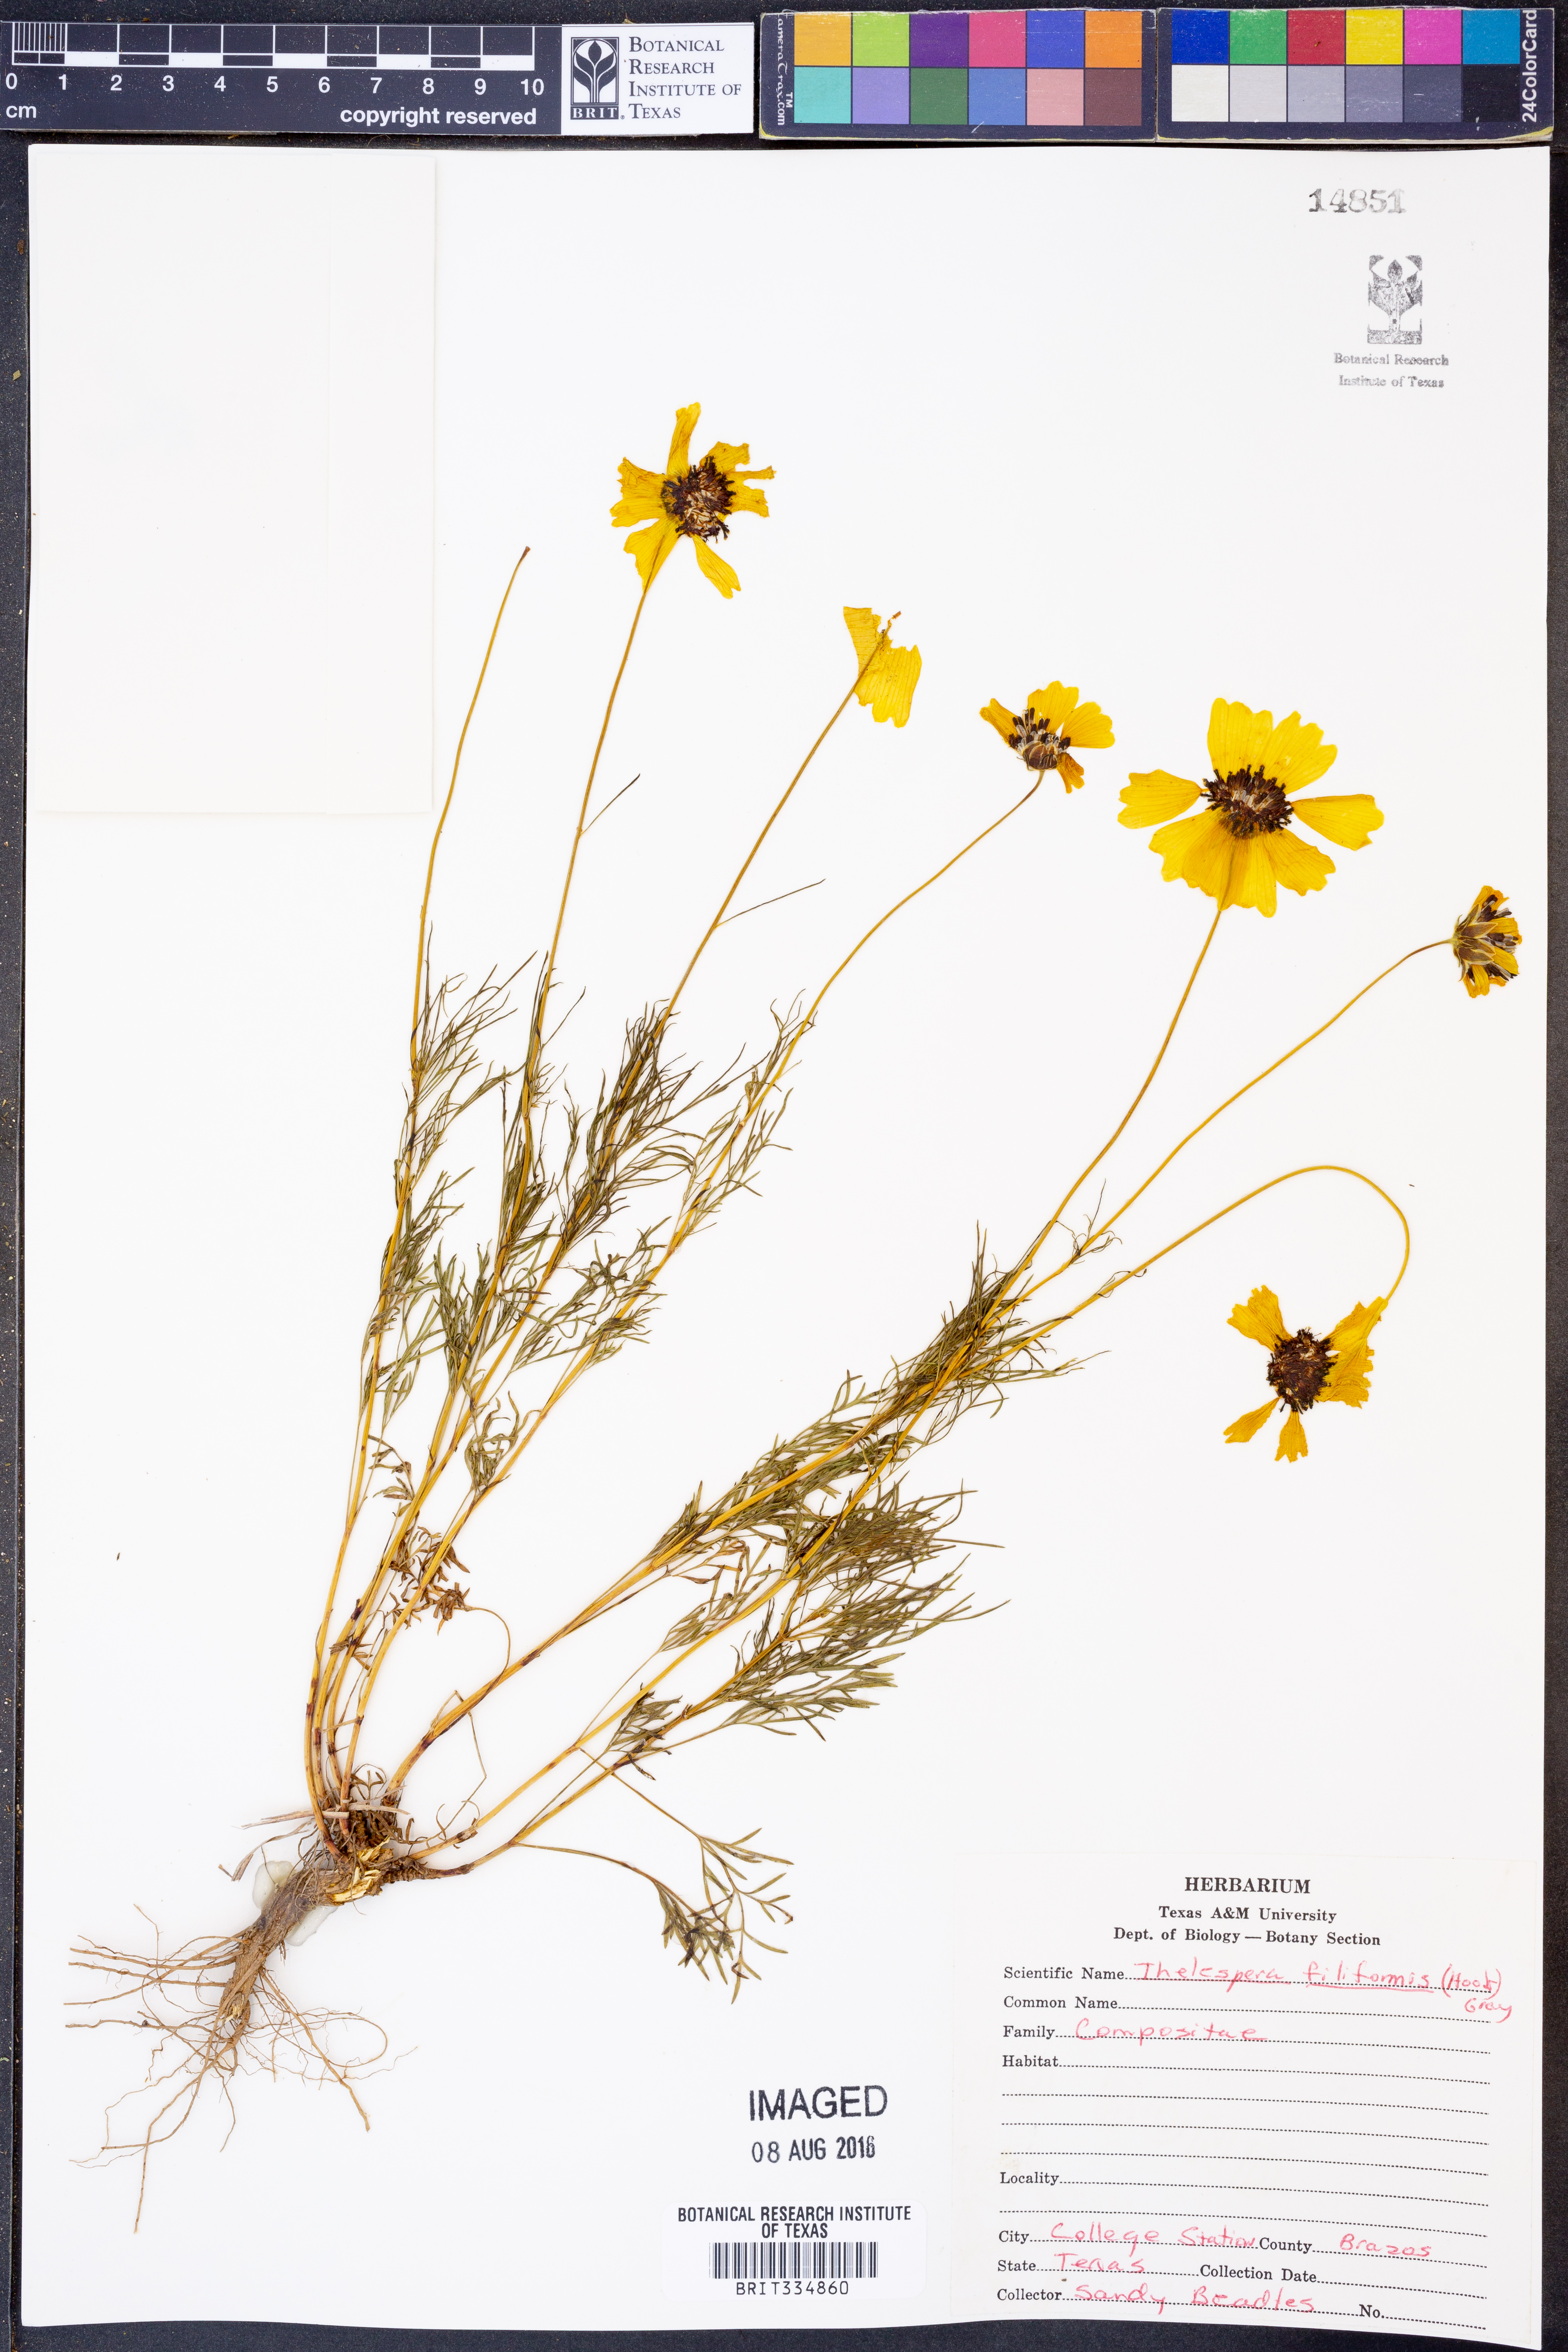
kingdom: Plantae
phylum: Tracheophyta
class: Magnoliopsida
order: Asterales
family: Asteraceae
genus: Thelesperma
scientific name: Thelesperma filifolium
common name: Stiff greenthread
